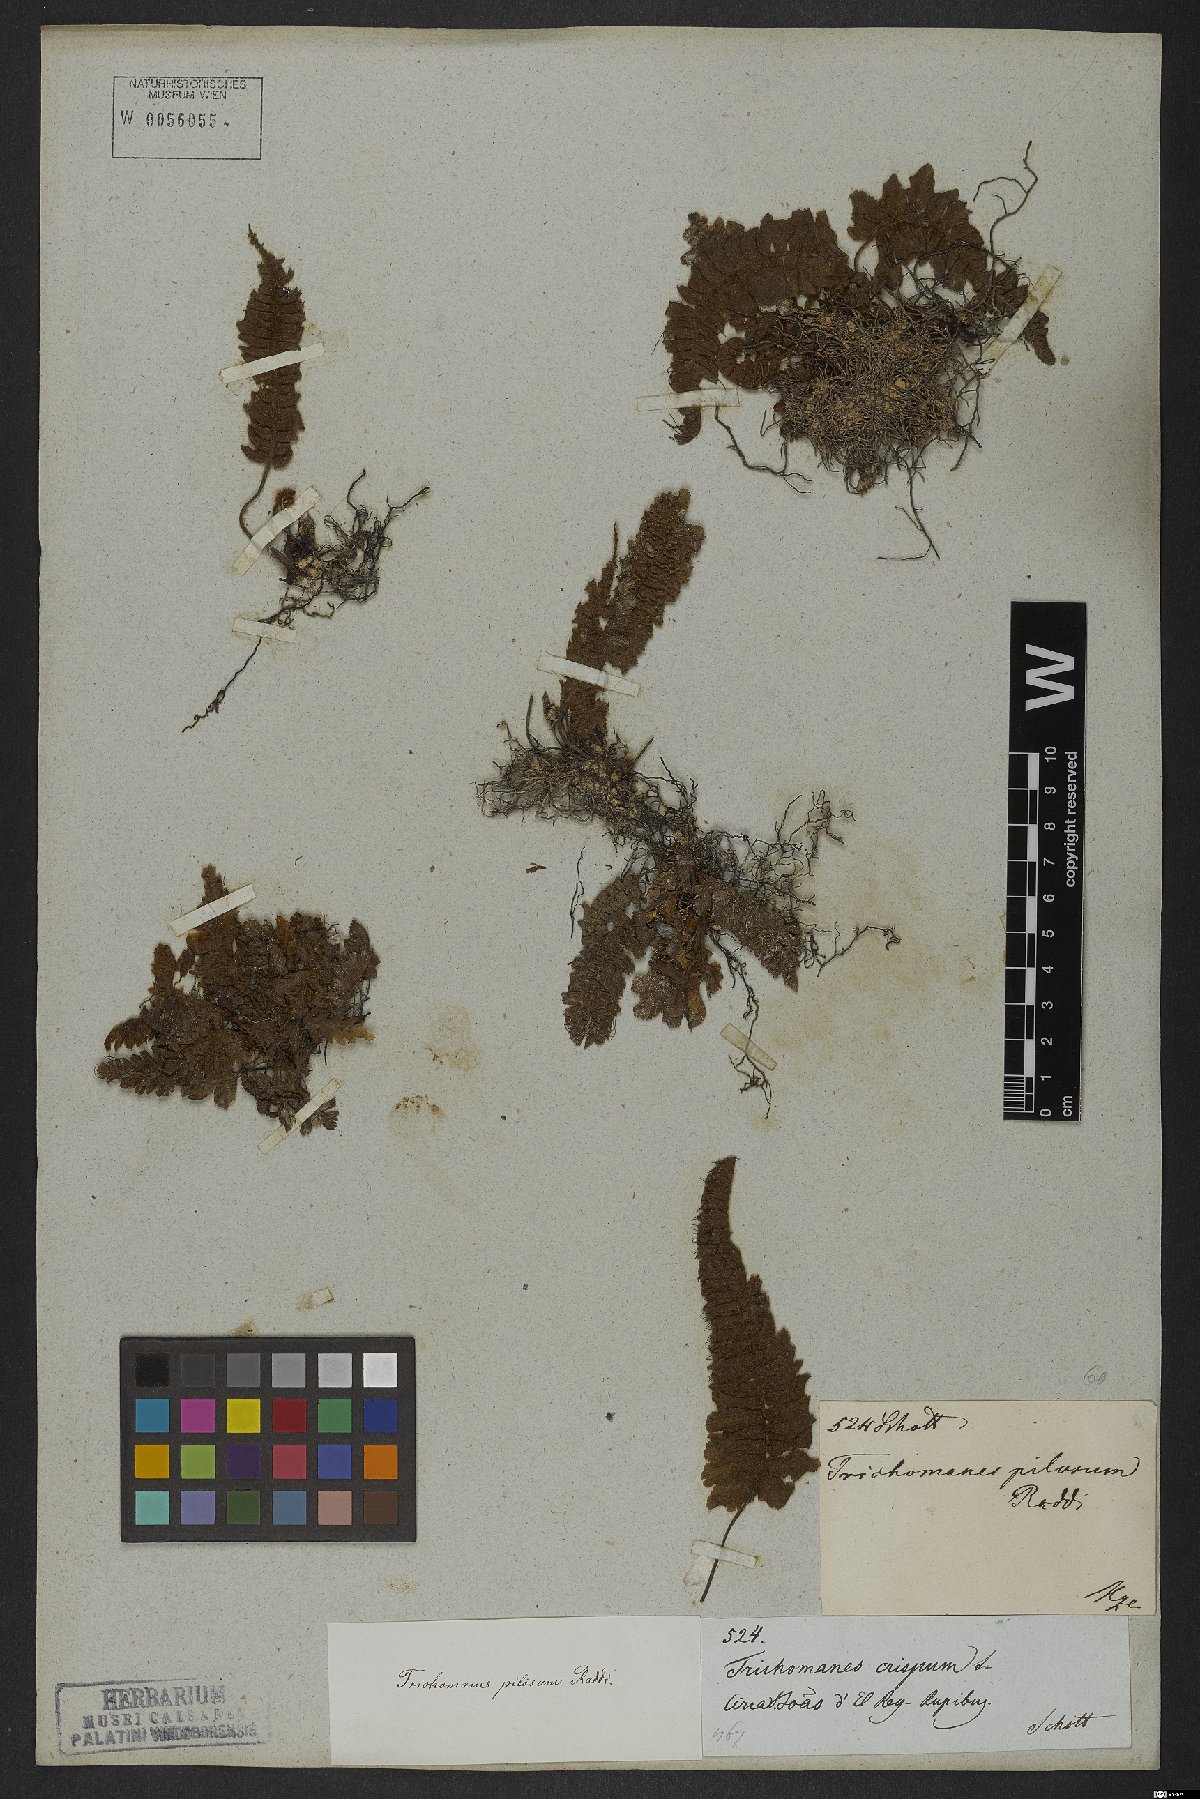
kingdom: Plantae
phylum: Tracheophyta
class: Polypodiopsida
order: Hymenophyllales
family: Hymenophyllaceae
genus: Trichomanes
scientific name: Trichomanes pilosum
